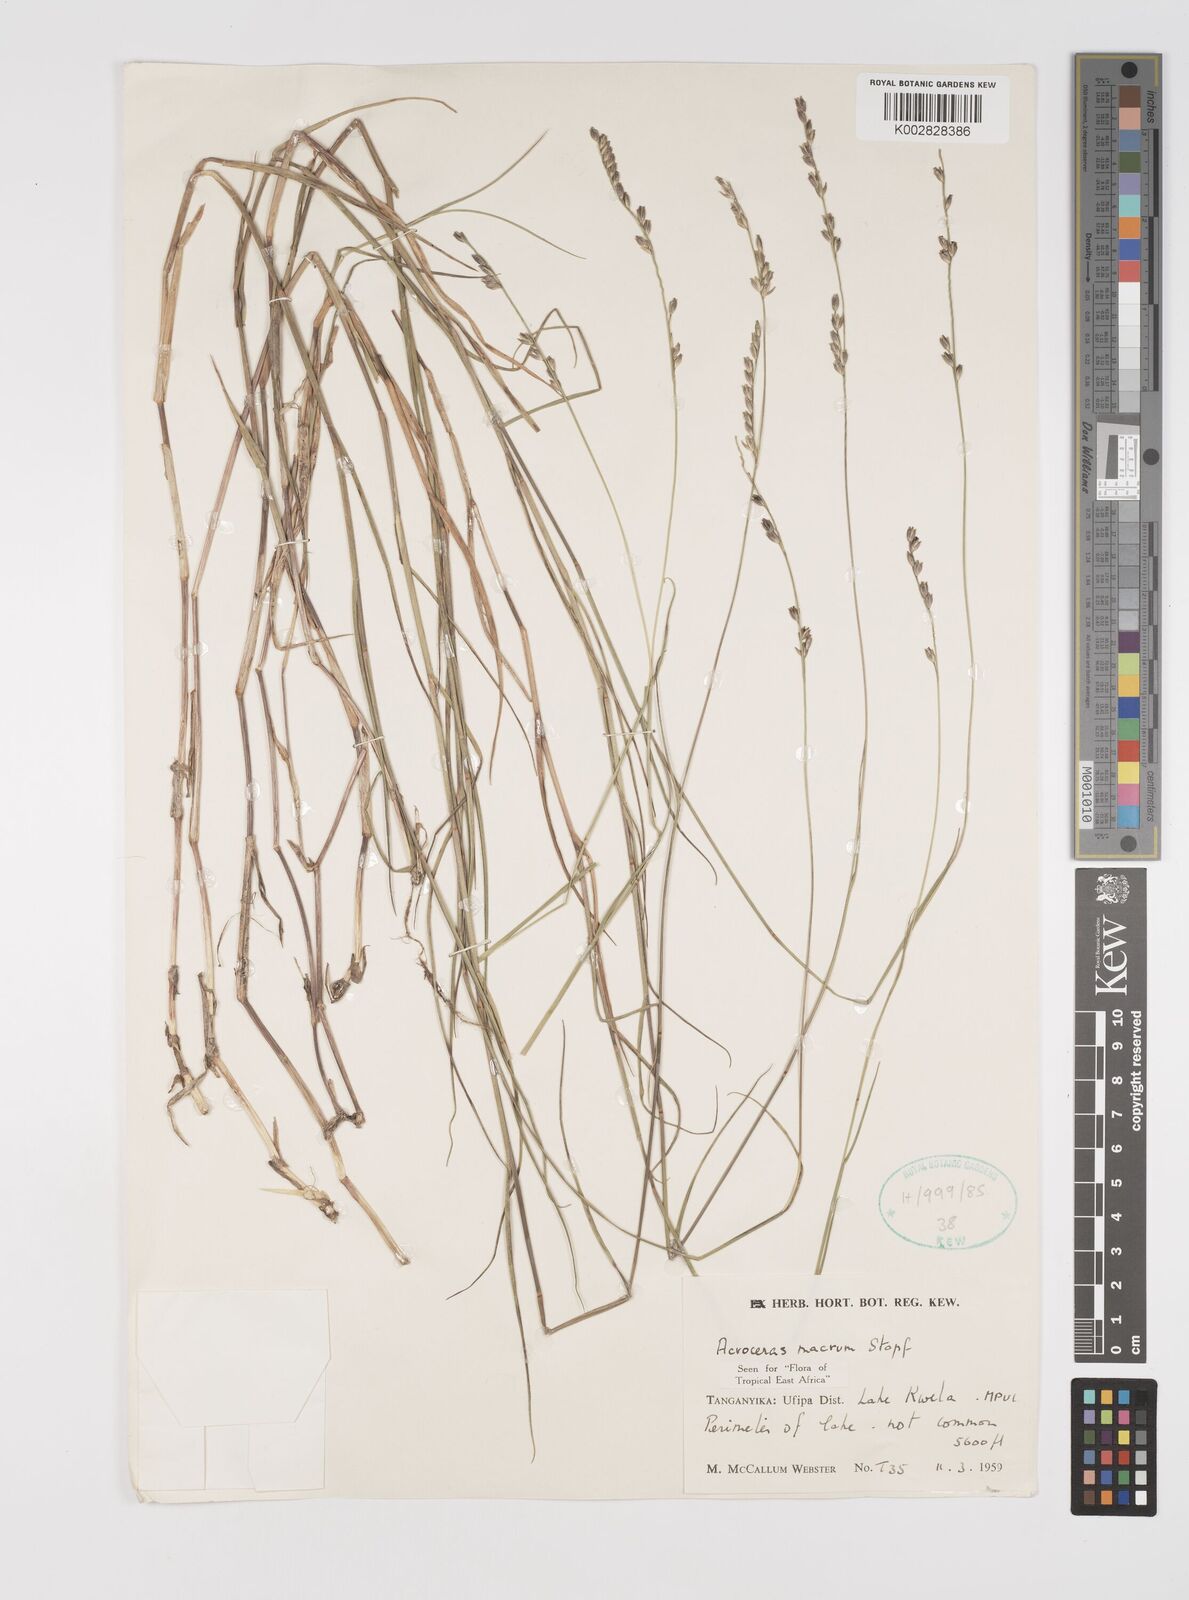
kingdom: Plantae
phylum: Tracheophyta
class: Liliopsida
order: Poales
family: Poaceae
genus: Acroceras
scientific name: Acroceras macrum
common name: Nyl grass
